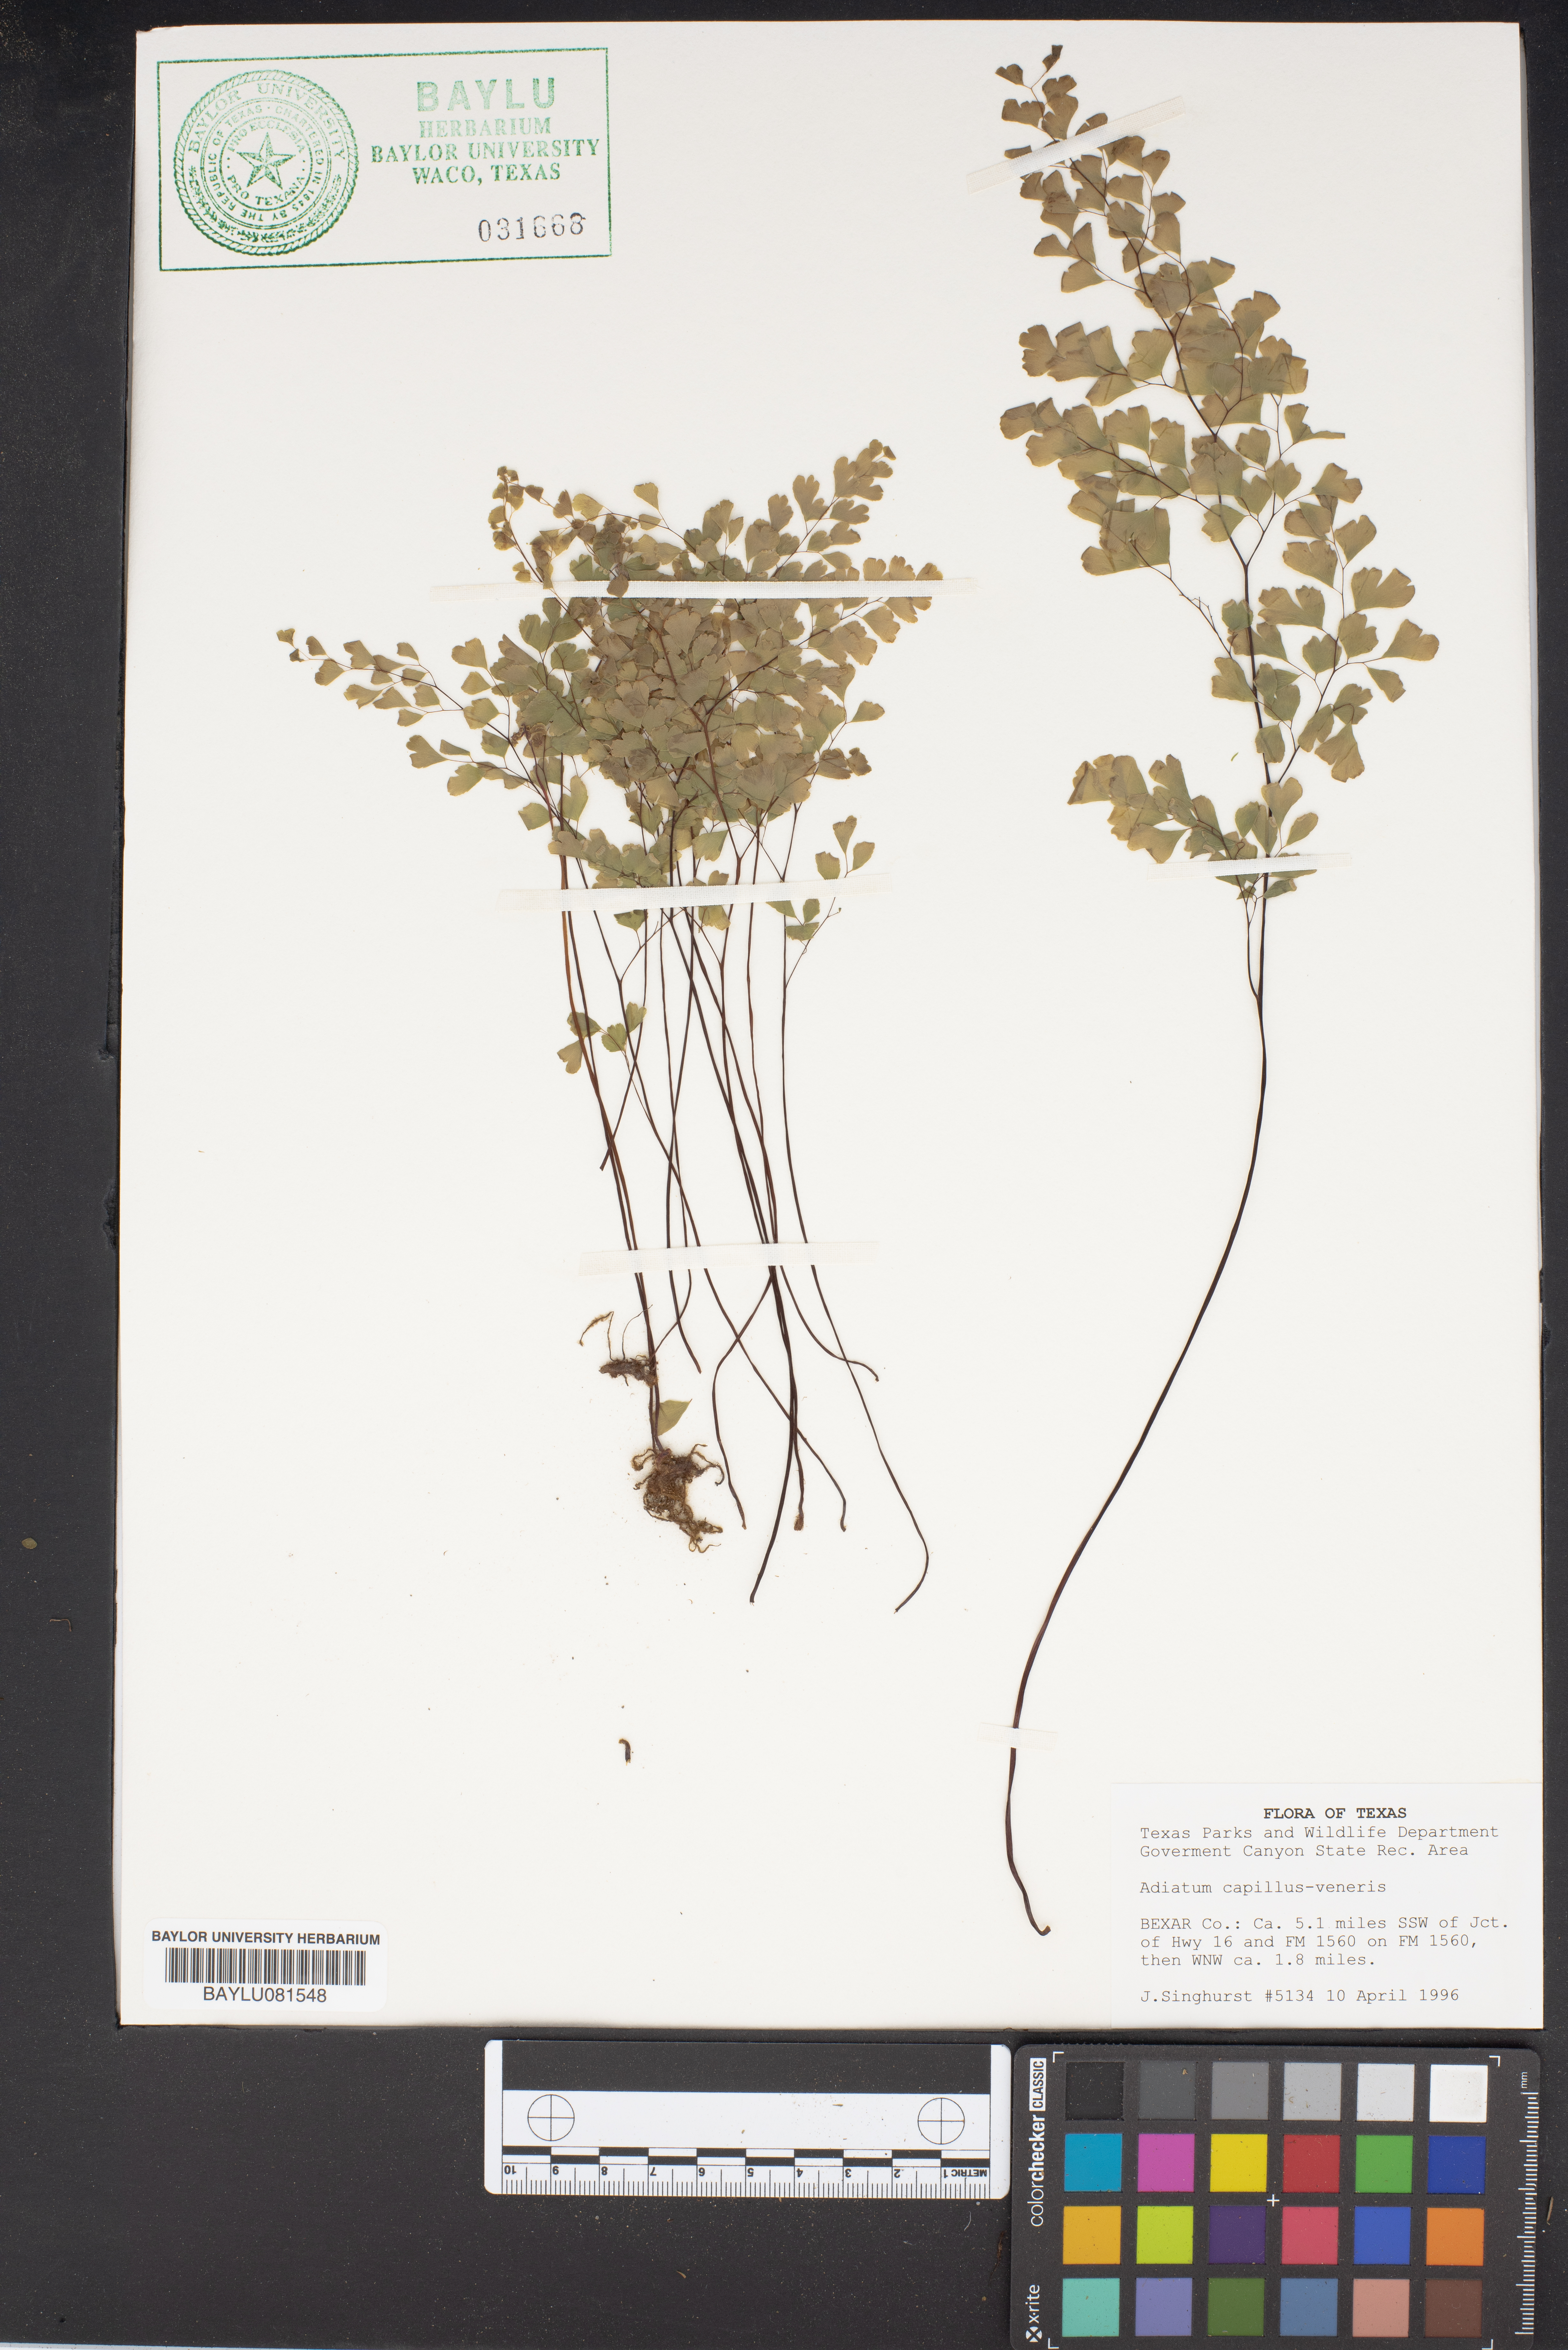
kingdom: Plantae
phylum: Tracheophyta
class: Polypodiopsida
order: Polypodiales
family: Pteridaceae
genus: Adiantum
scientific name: Adiantum capillus-veneris
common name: Maidenhair fern
